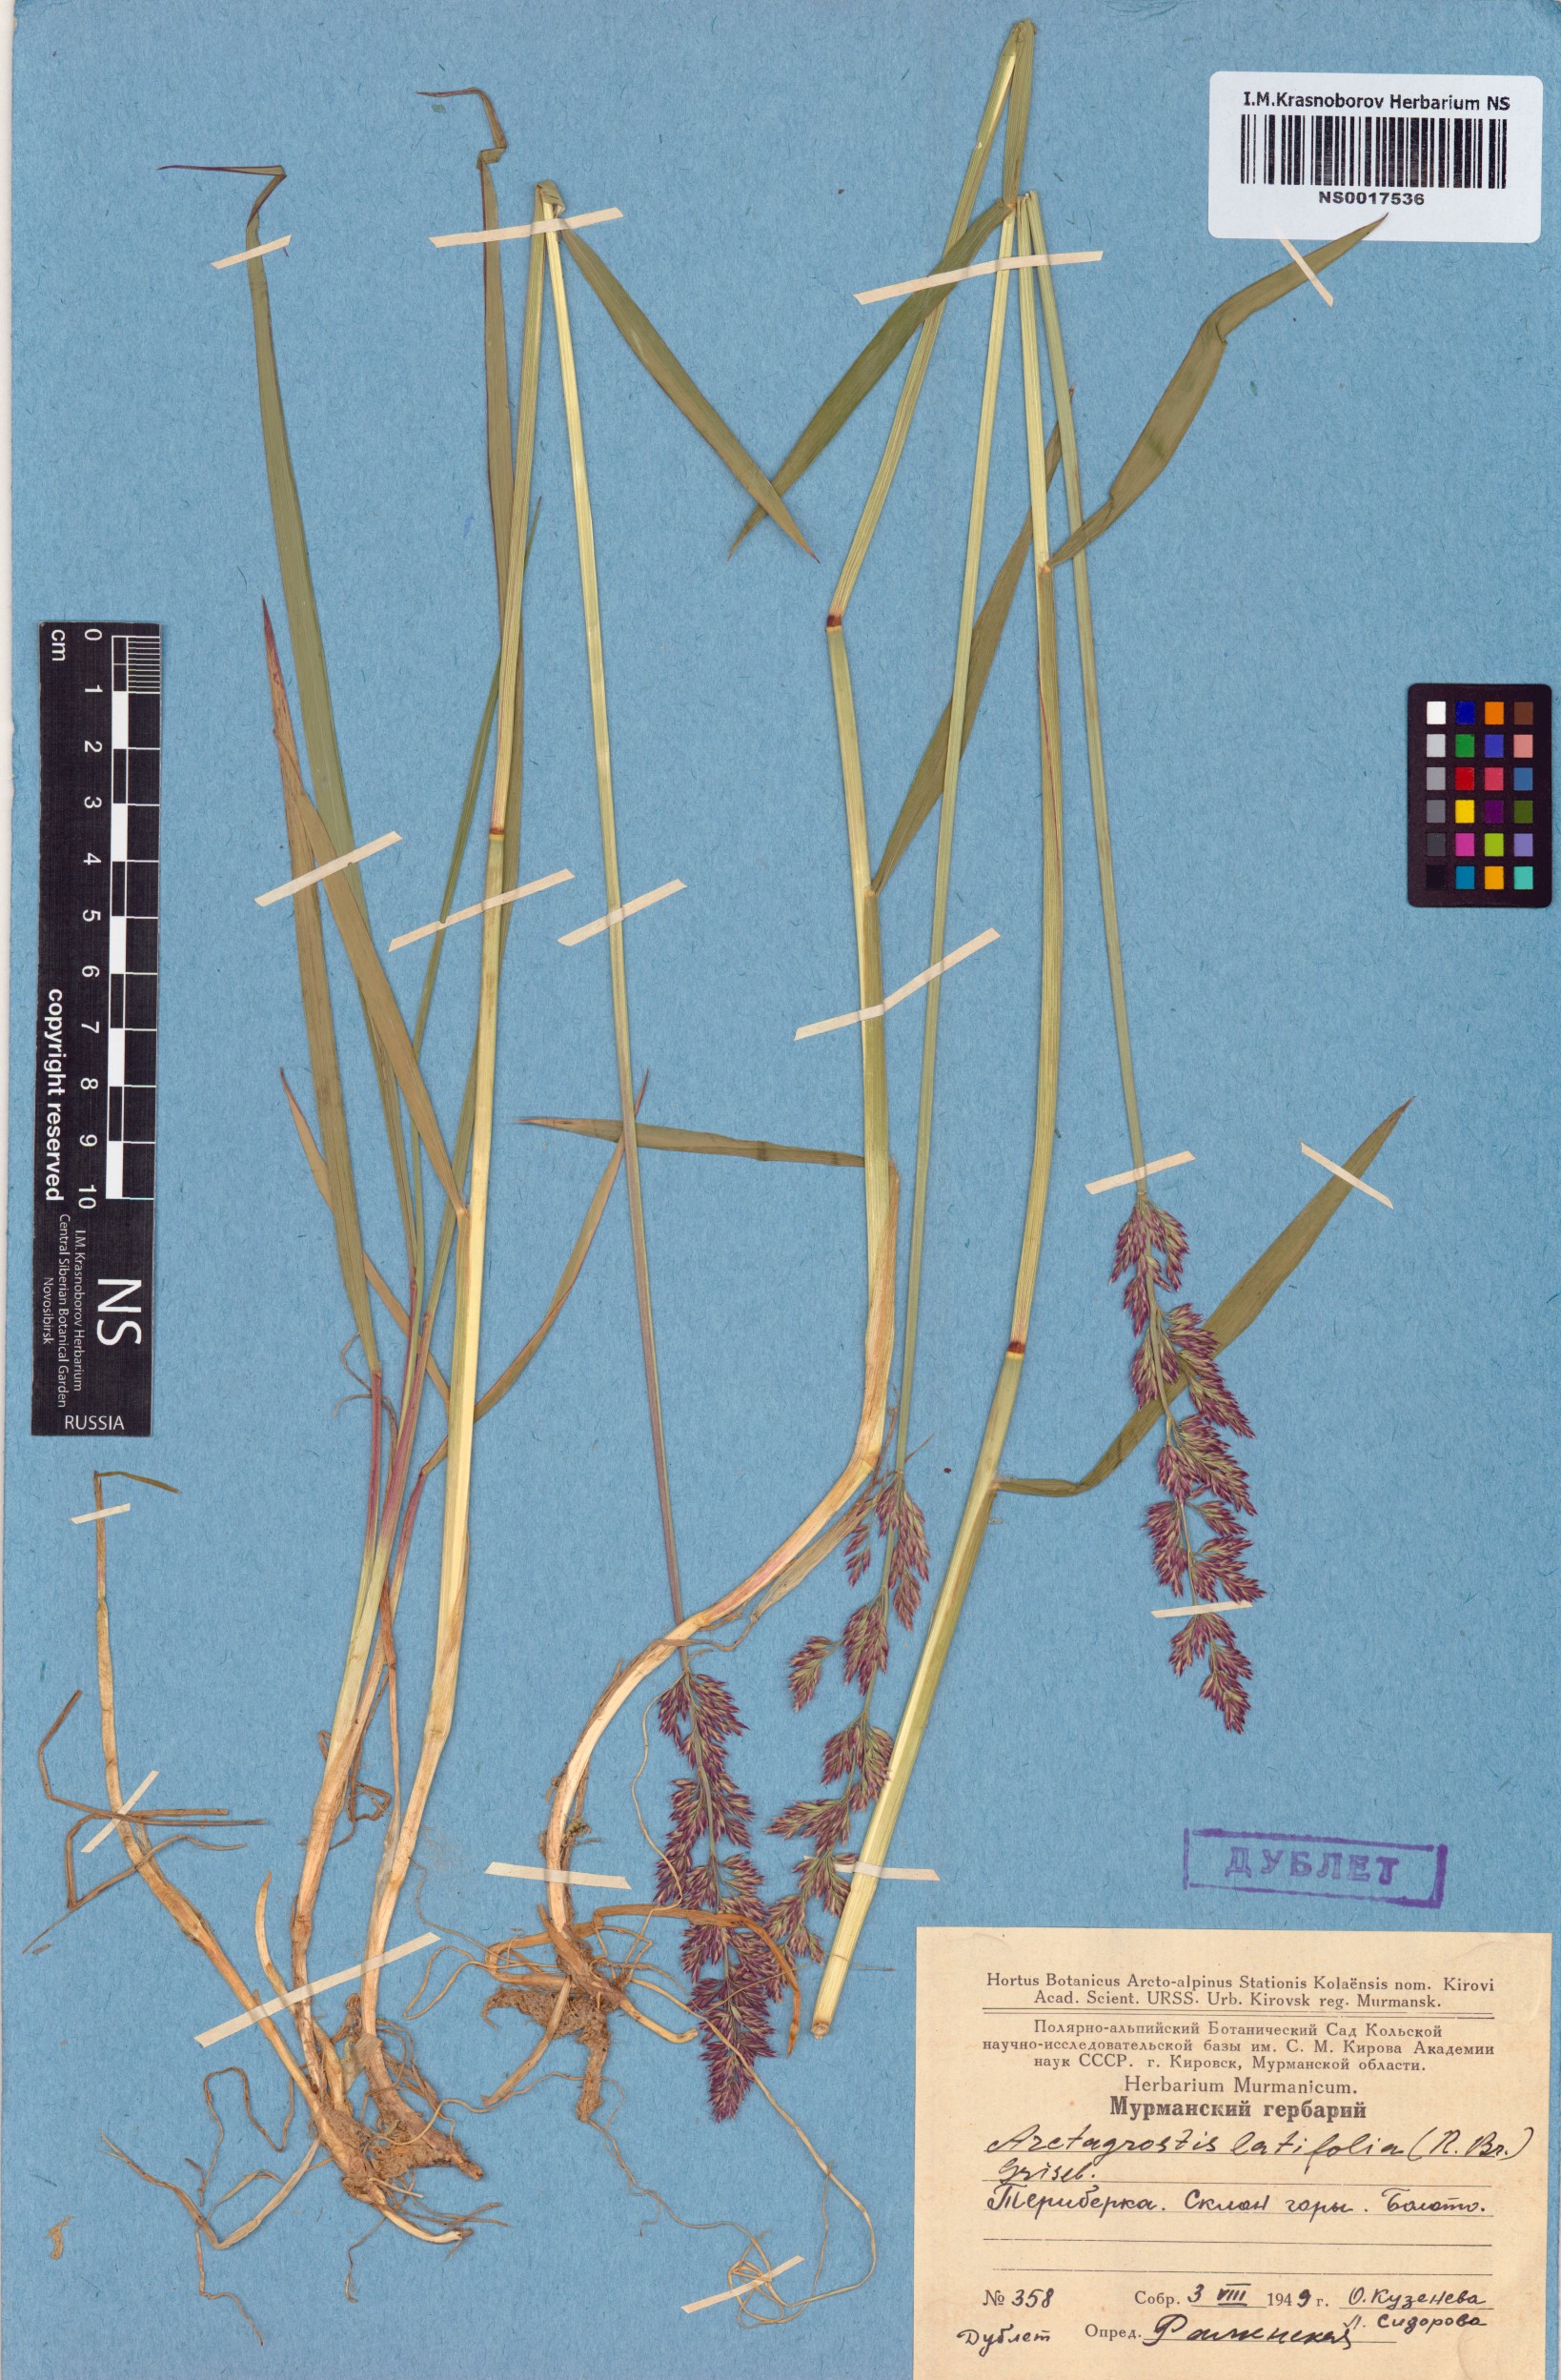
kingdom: Plantae
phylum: Tracheophyta
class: Liliopsida
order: Poales
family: Poaceae
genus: Arctagrostis
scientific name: Arctagrostis latifolia
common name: Arctic grass
